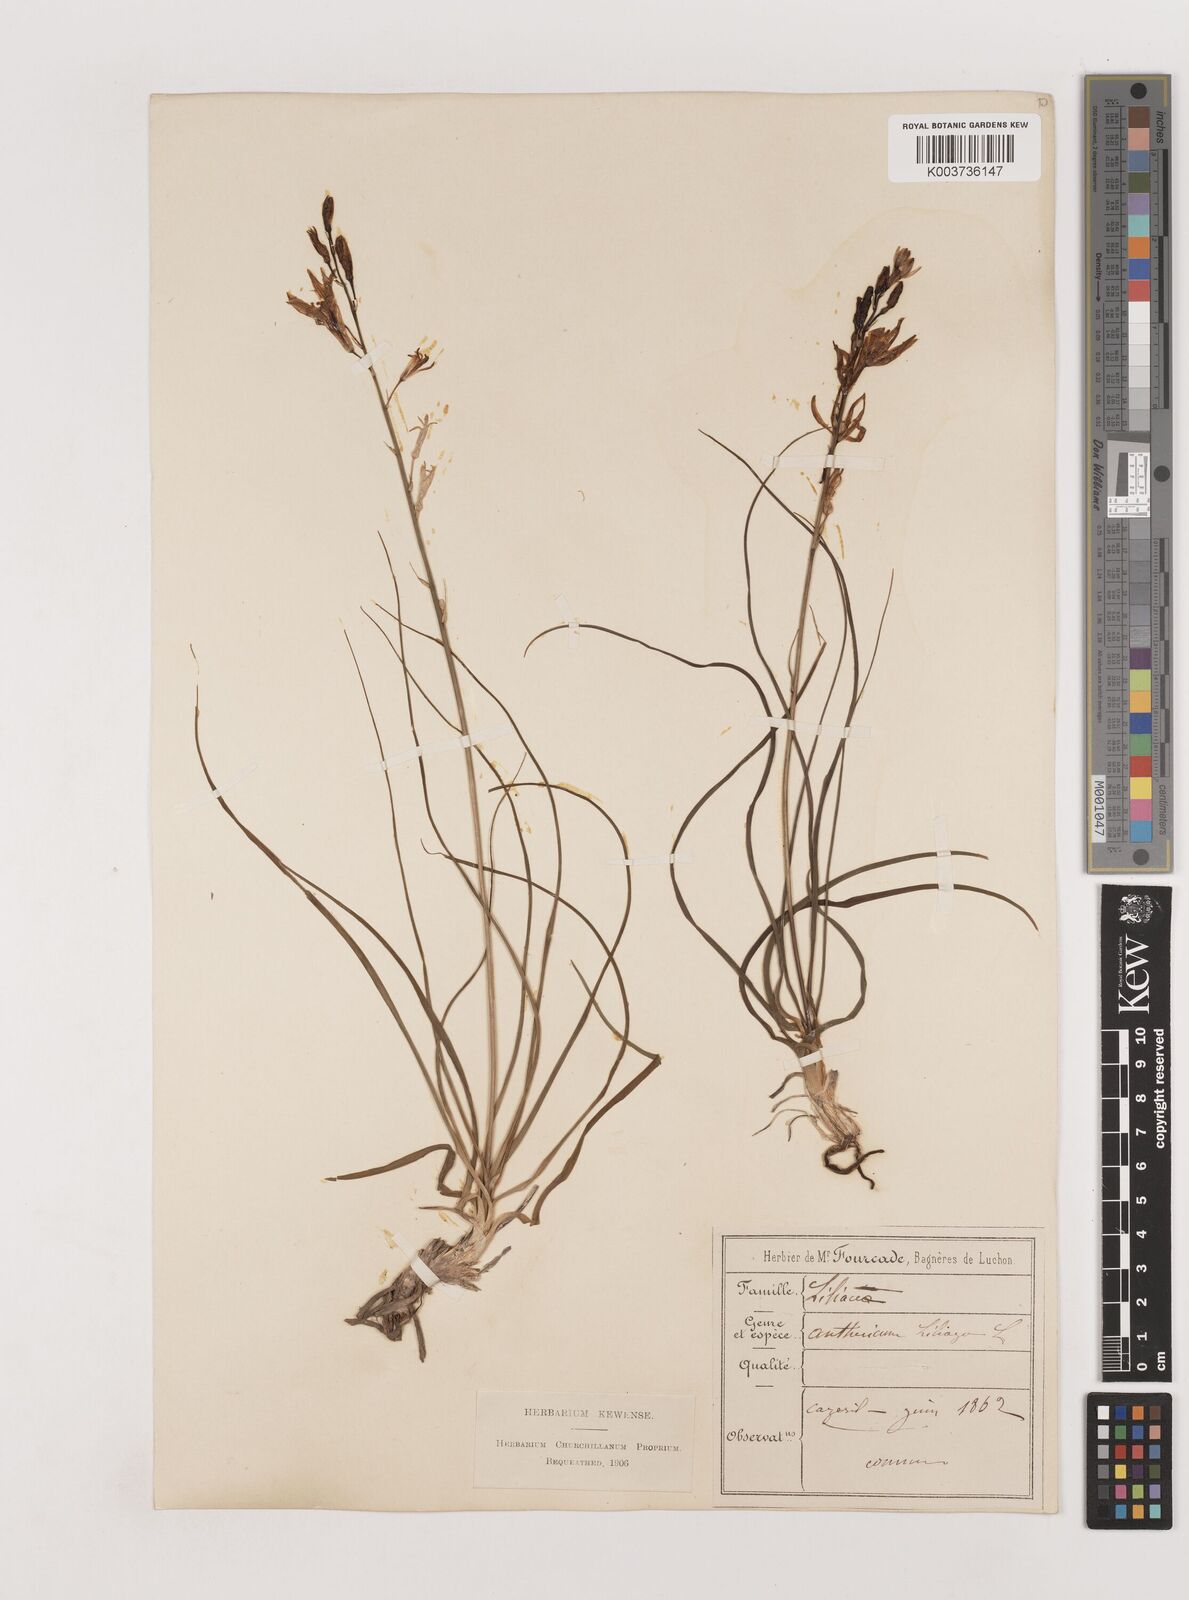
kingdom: Plantae
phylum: Tracheophyta
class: Liliopsida
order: Asparagales
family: Asparagaceae
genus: Anthericum
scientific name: Anthericum liliago
